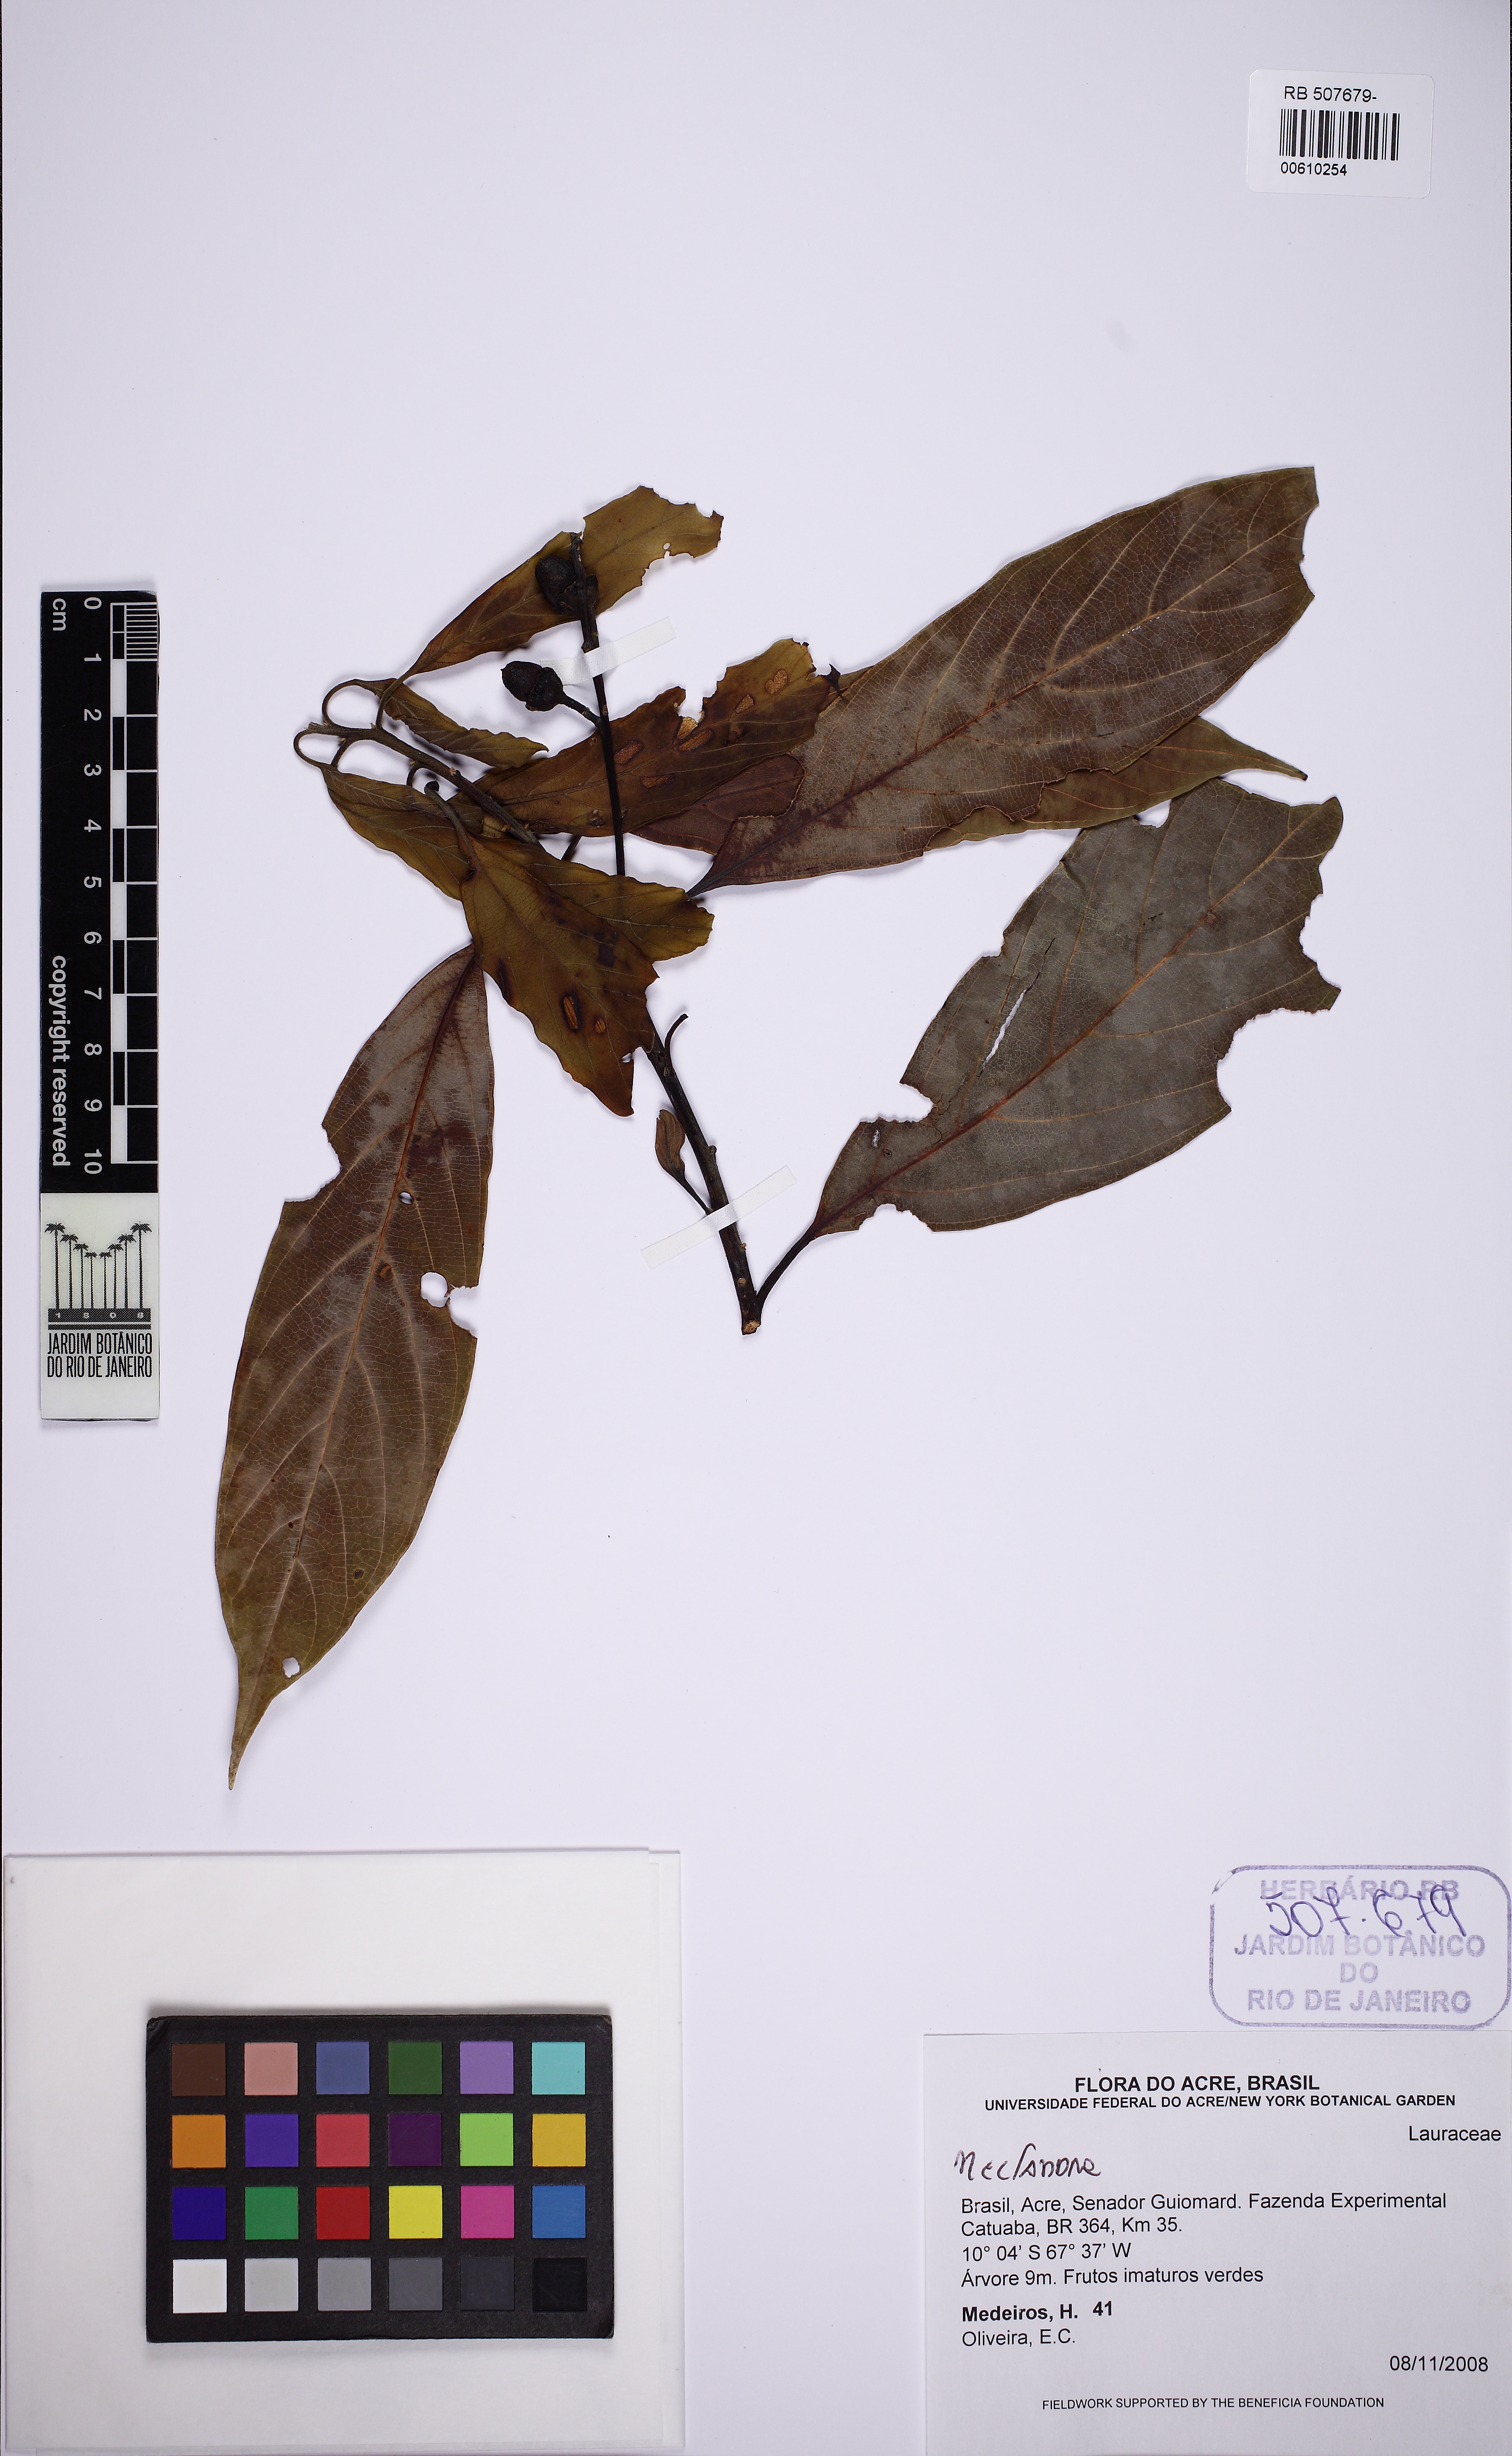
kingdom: Plantae
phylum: Tracheophyta
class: Magnoliopsida
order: Laurales
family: Lauraceae
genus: Nectandra
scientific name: Nectandra
